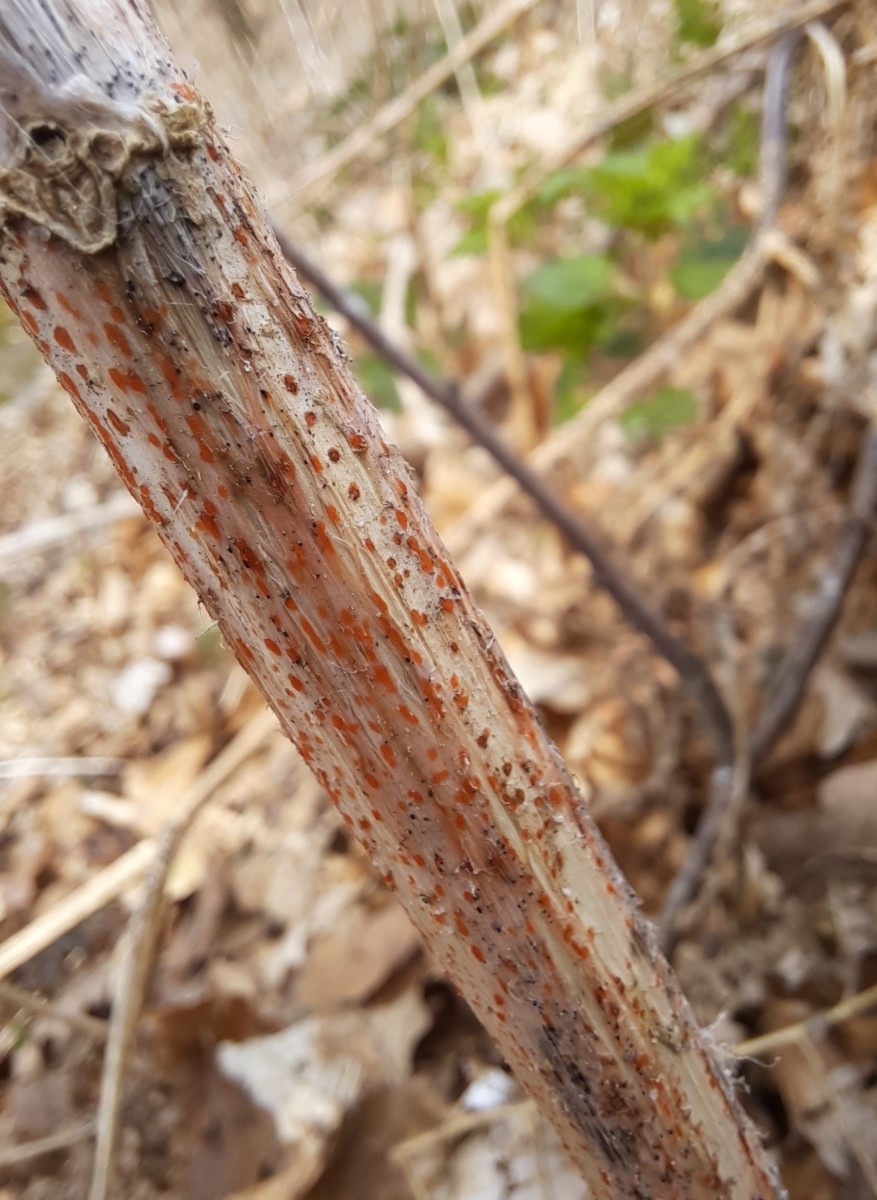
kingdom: Fungi
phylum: Ascomycota
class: Leotiomycetes
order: Helotiales
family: Calloriaceae
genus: Calloria
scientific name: Calloria urticae
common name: nælde-orangeskive
